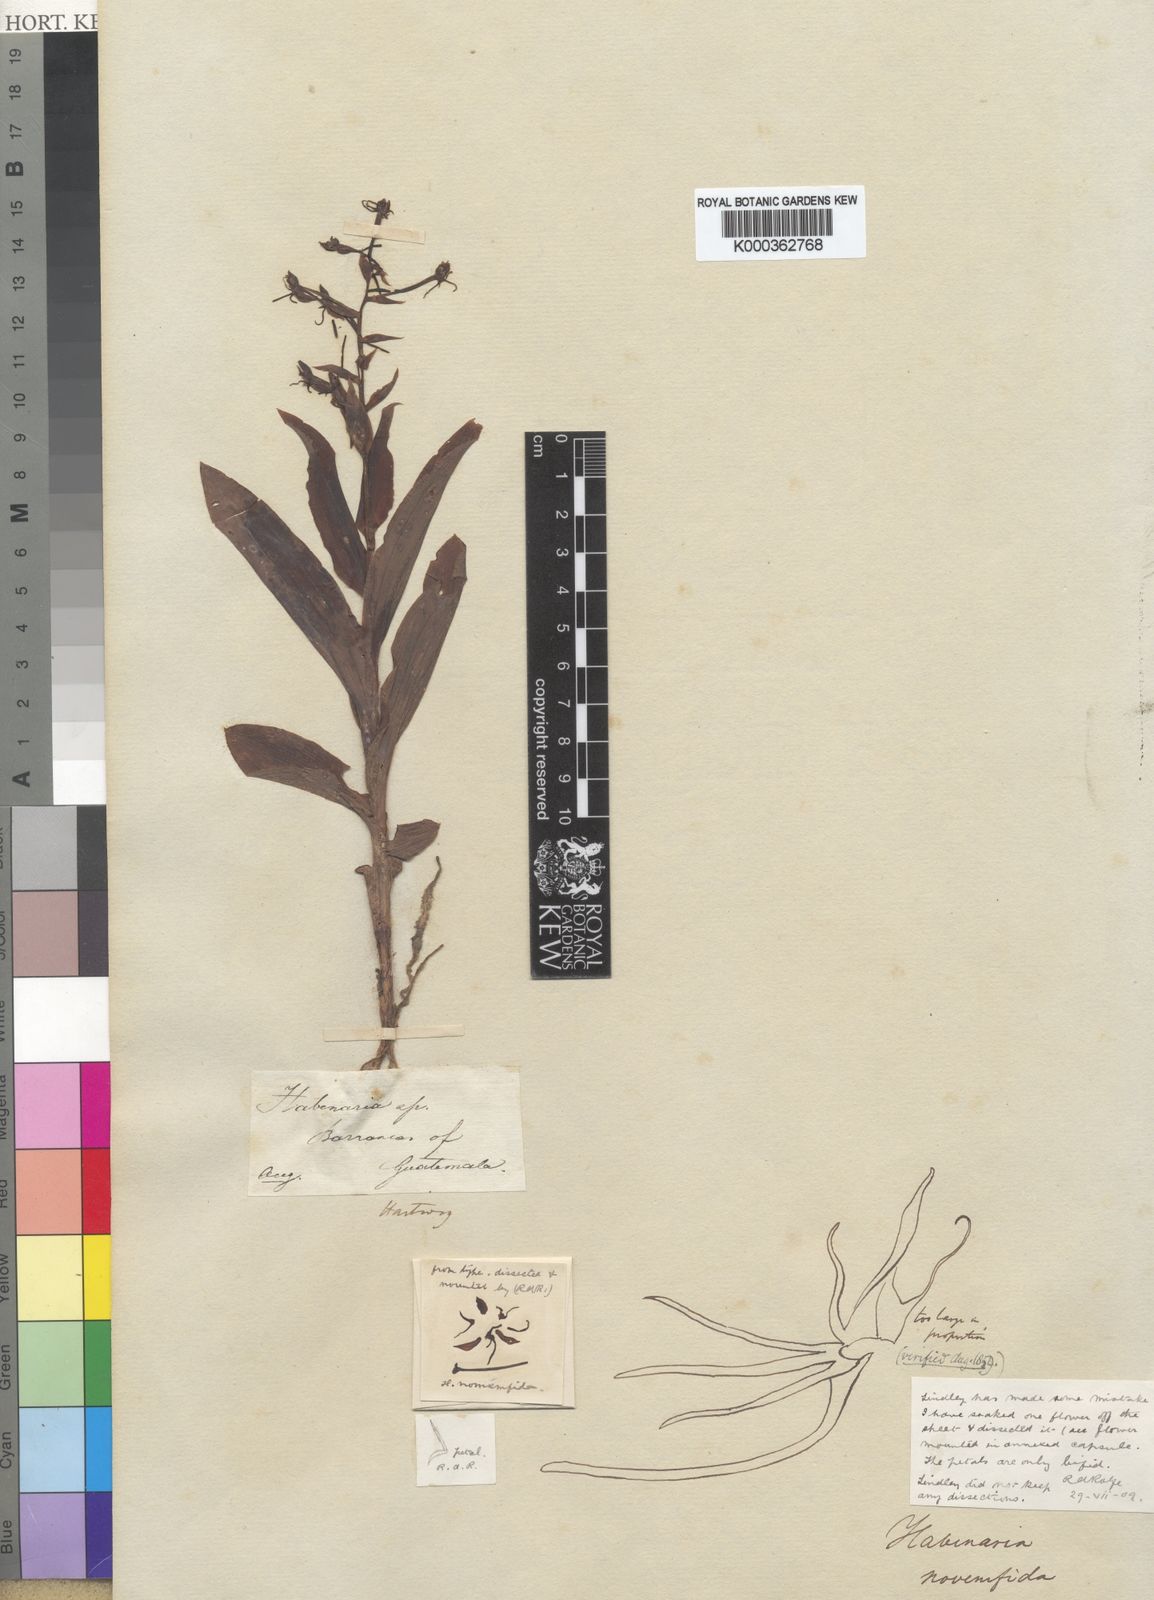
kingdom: Plantae
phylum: Tracheophyta
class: Liliopsida
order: Asparagales
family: Orchidaceae
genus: Habenaria
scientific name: Habenaria novemfida
